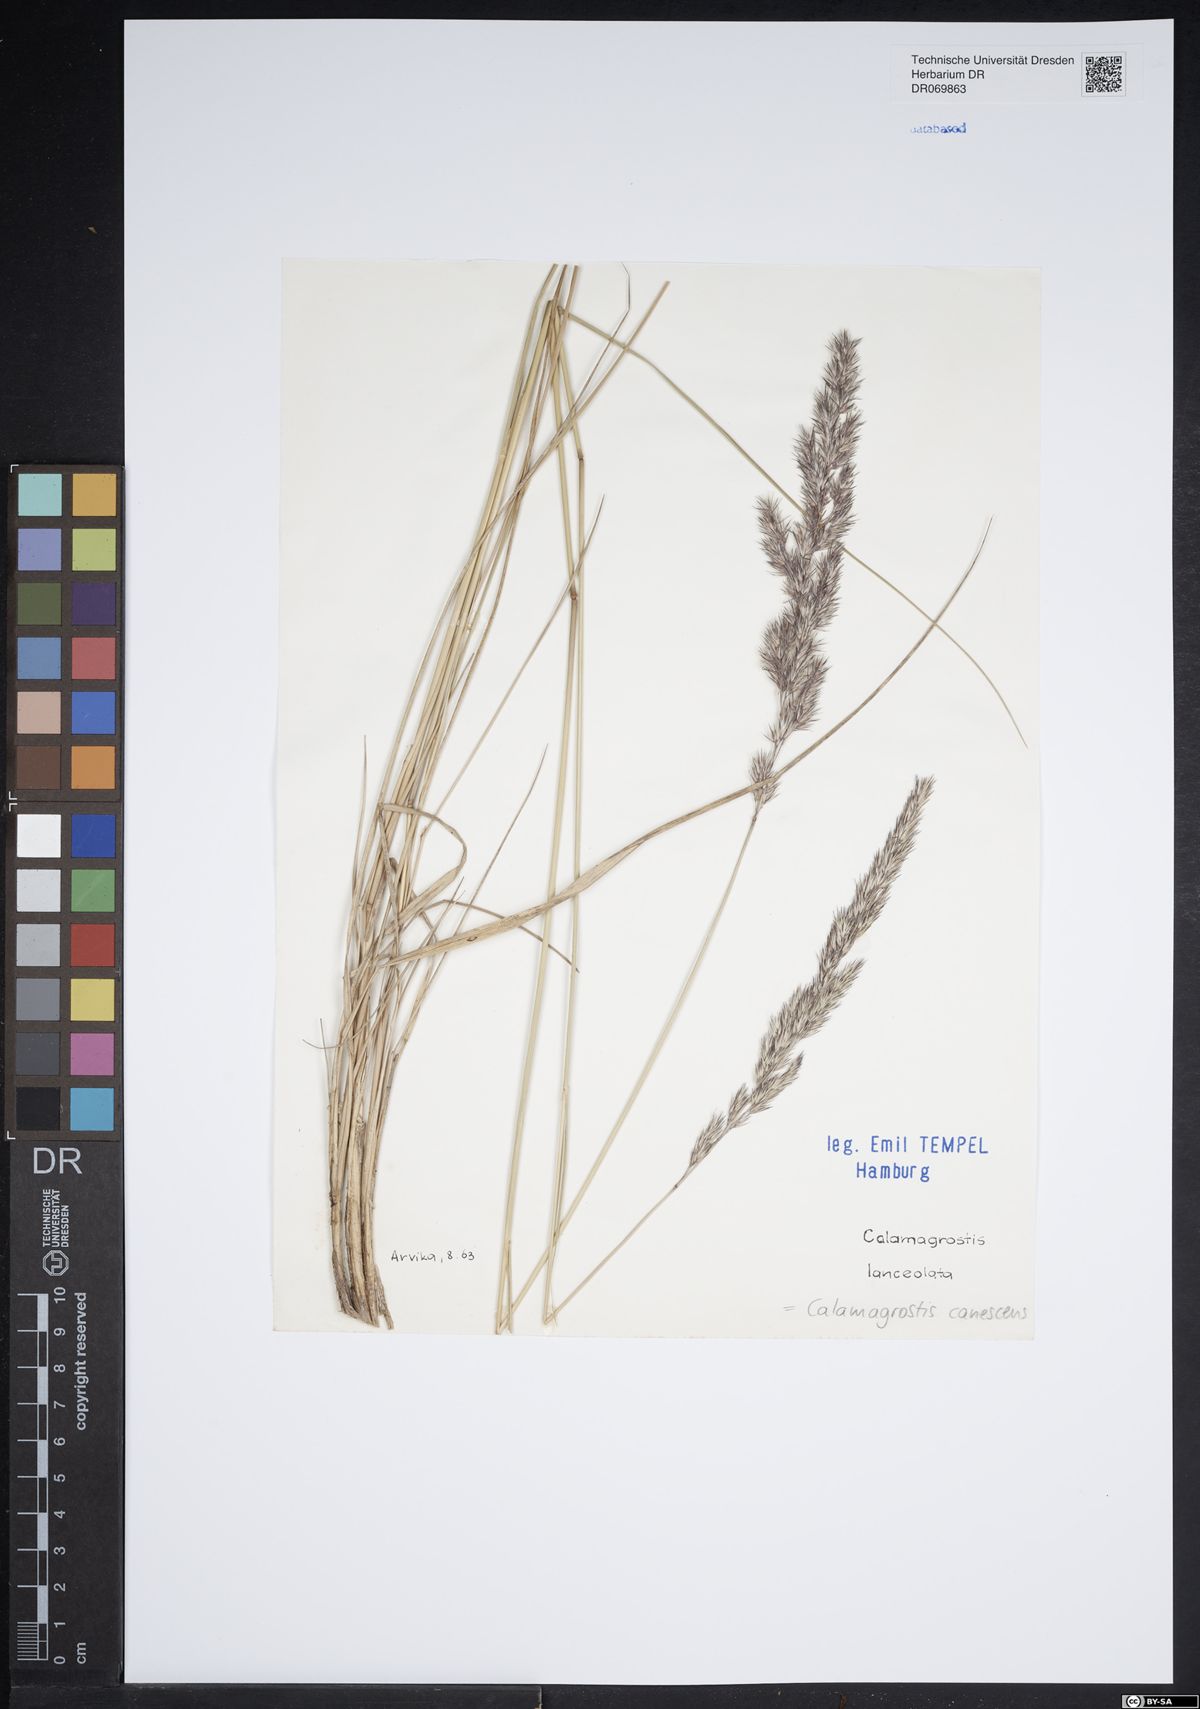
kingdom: Plantae
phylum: Tracheophyta
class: Liliopsida
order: Poales
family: Poaceae
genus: Calamagrostis
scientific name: Calamagrostis arundinacea
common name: Metskastik
